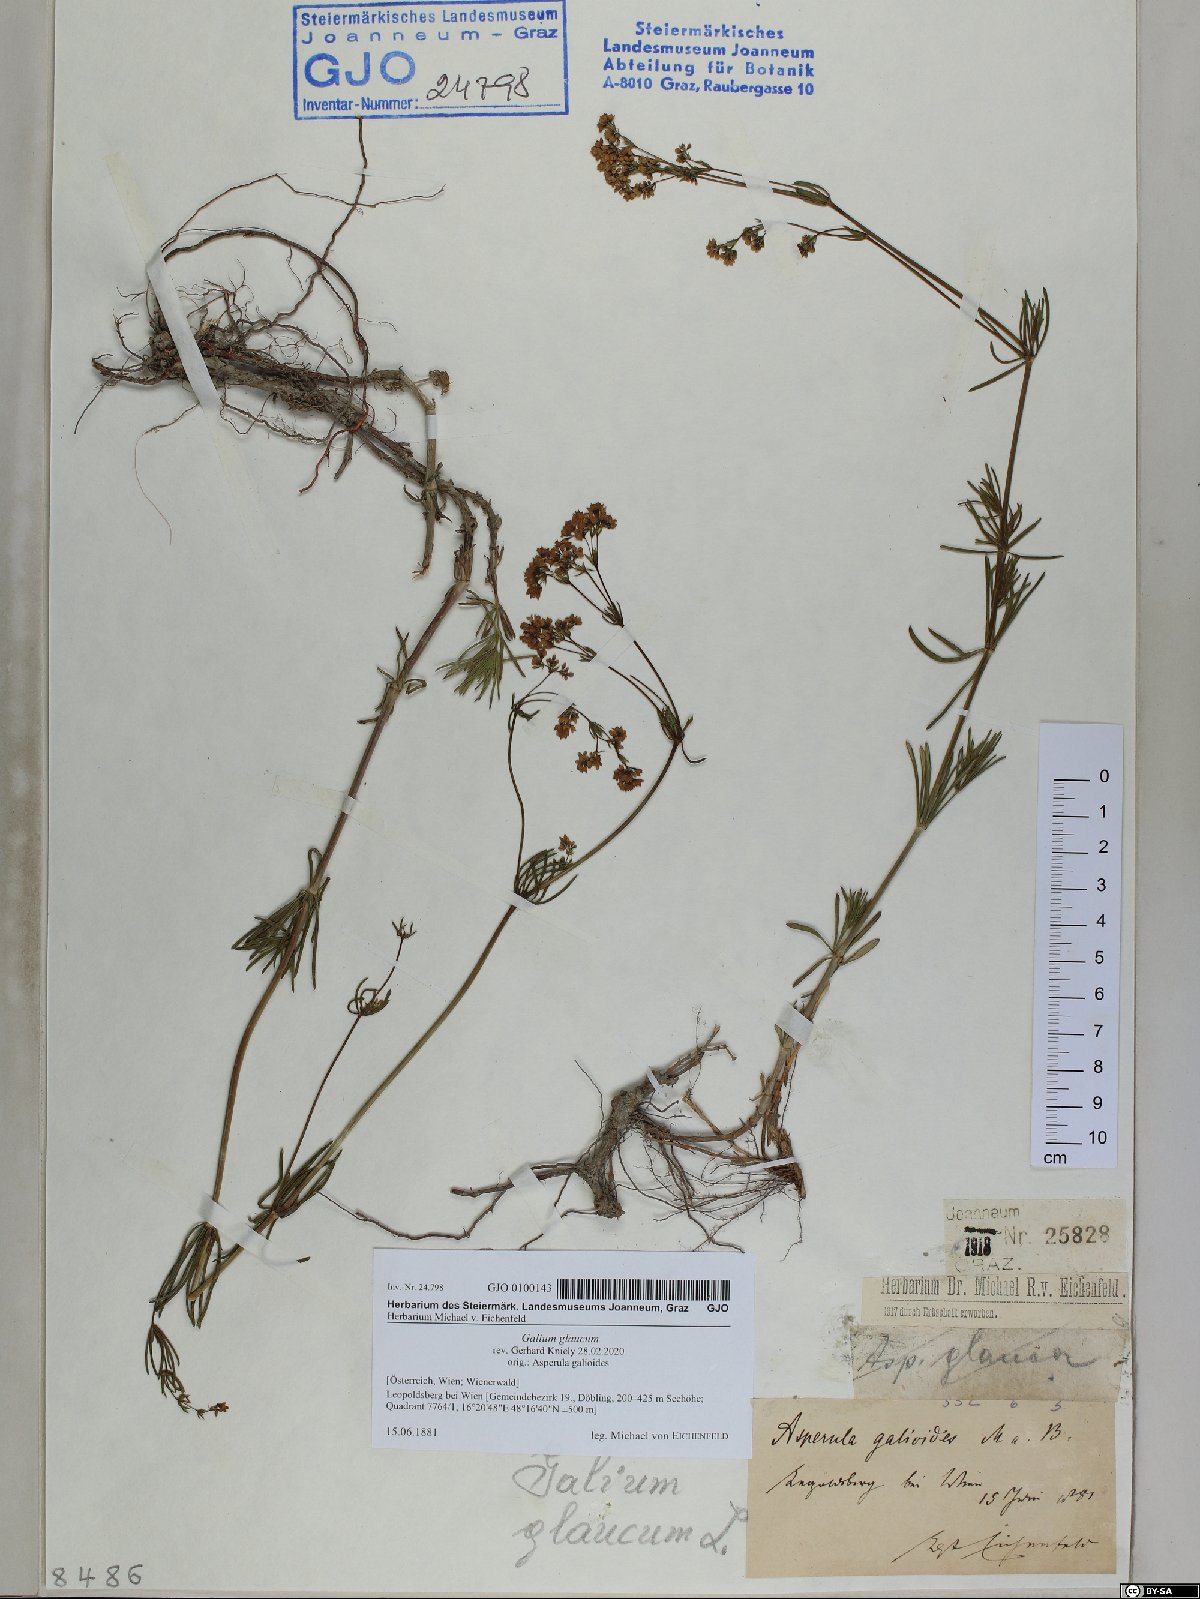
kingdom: Plantae
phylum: Tracheophyta
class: Magnoliopsida
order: Gentianales
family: Rubiaceae
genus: Galium
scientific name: Galium glaucum
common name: Waxy bedstraw
